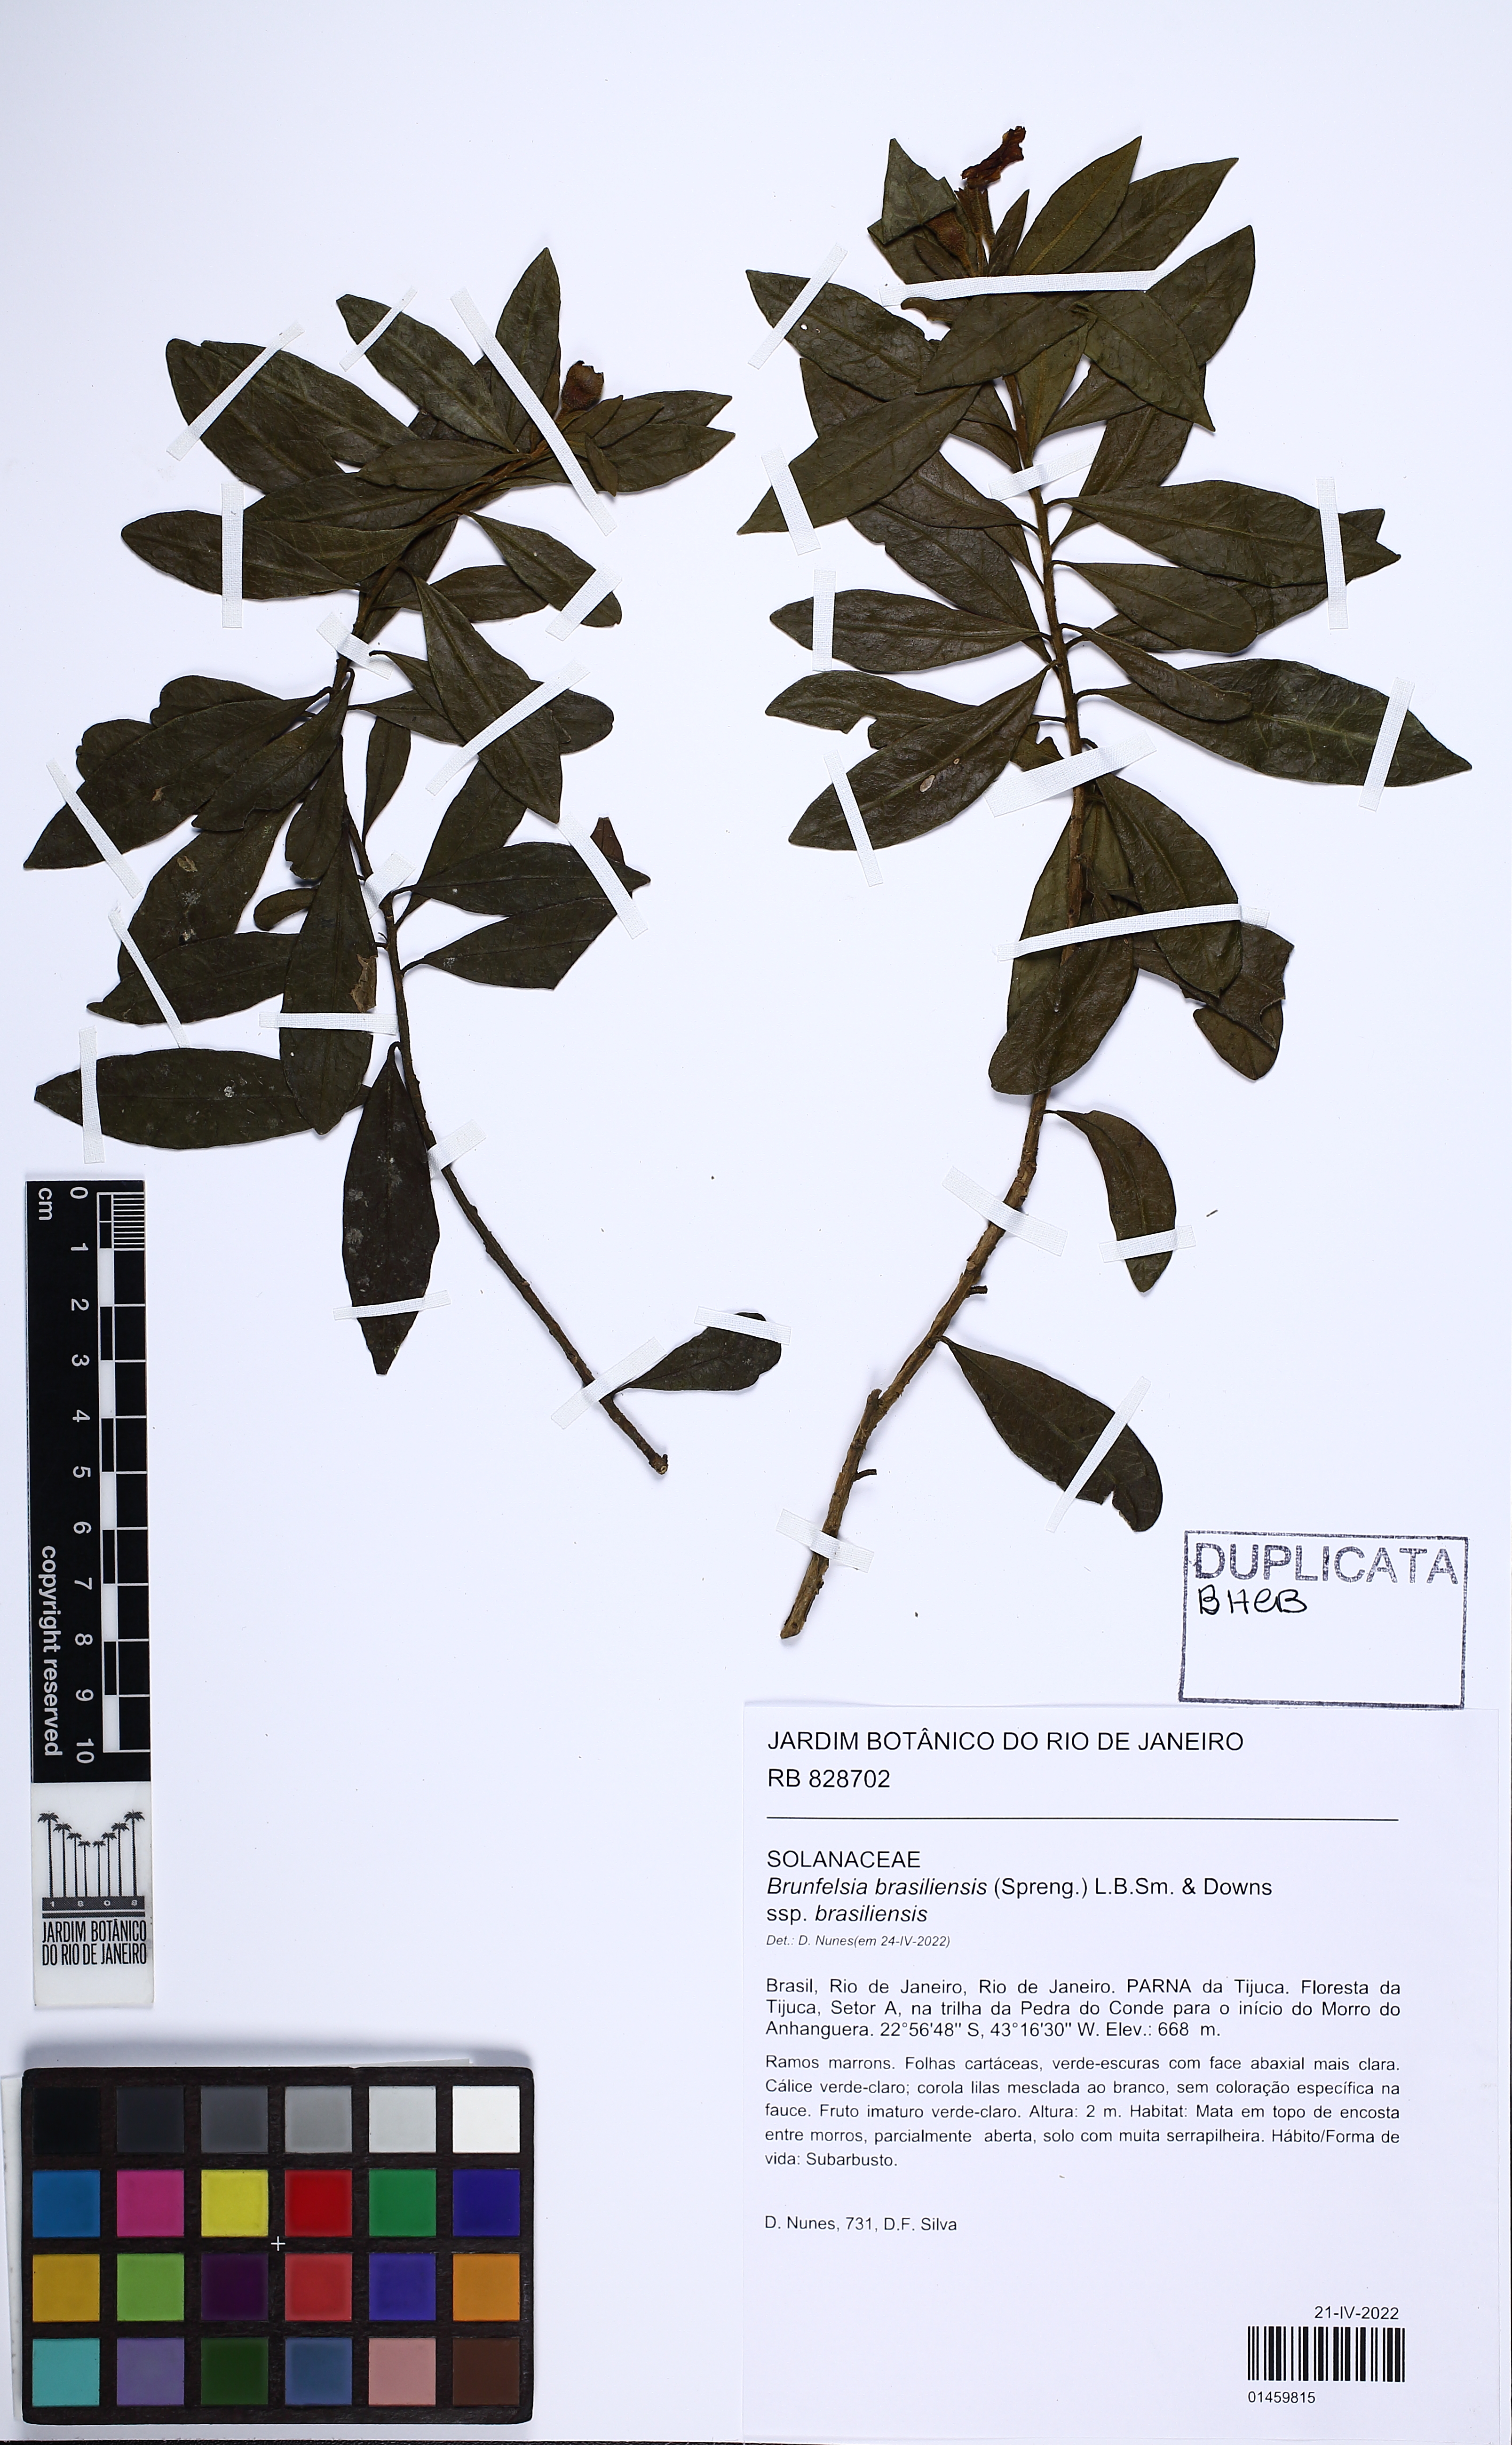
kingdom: Plantae
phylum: Tracheophyta
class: Magnoliopsida
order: Solanales
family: Solanaceae
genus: Brunfelsia
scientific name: Brunfelsia brasiliensis
